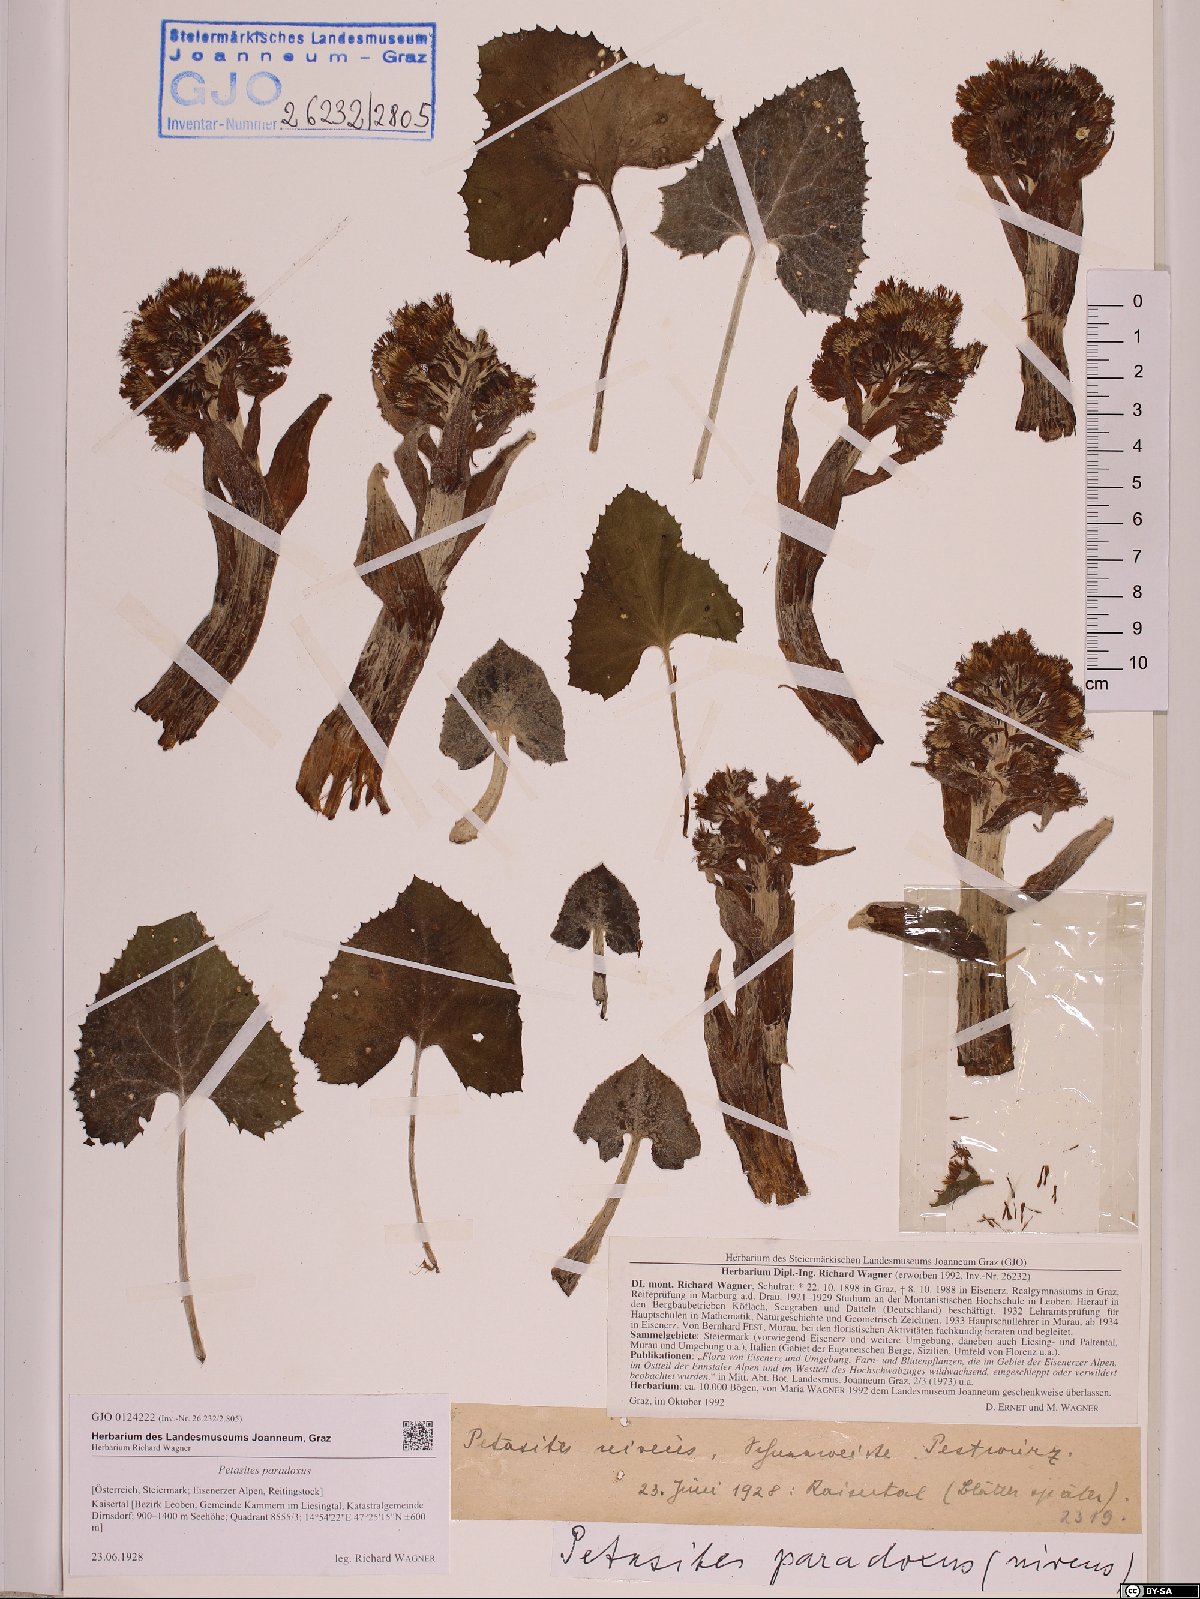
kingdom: Plantae
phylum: Tracheophyta
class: Magnoliopsida
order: Asterales
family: Asteraceae
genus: Petasites
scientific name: Petasites paradoxus
